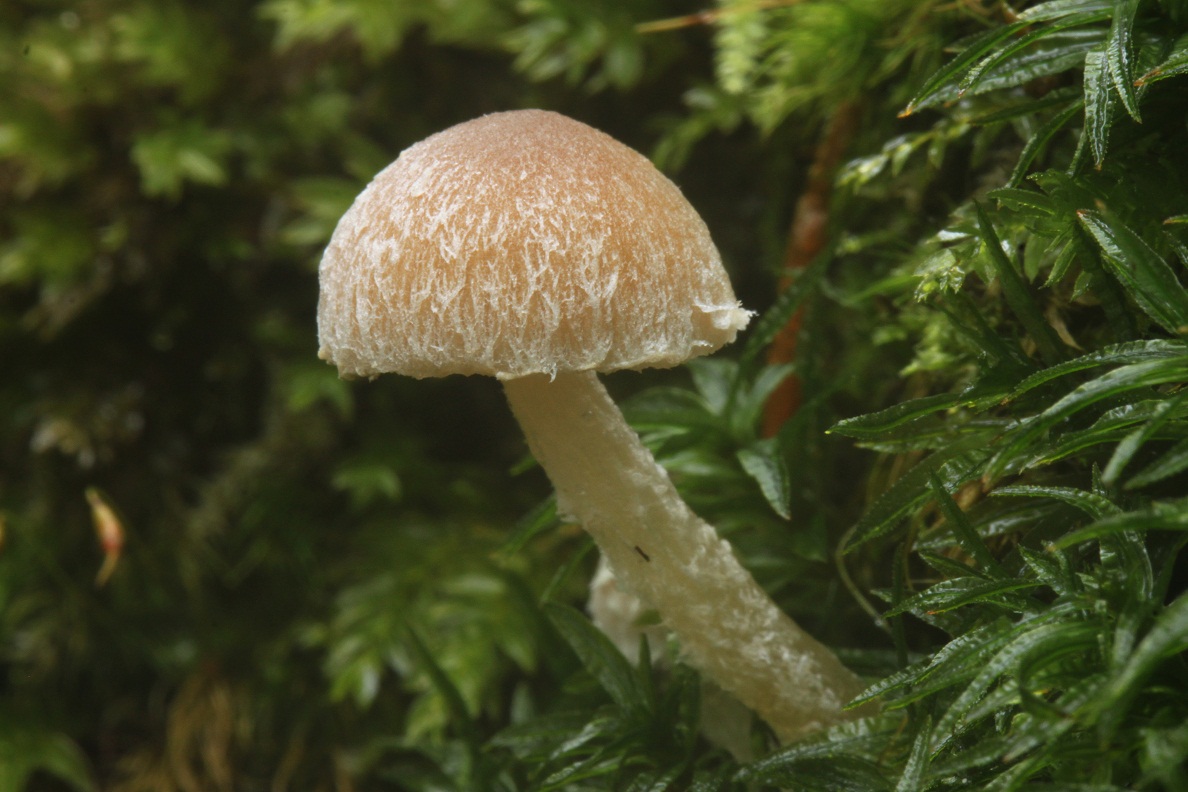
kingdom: Fungi
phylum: Basidiomycota
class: Agaricomycetes
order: Agaricales
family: Psathyrellaceae
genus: Psathyrella
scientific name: Psathyrella kitsiana
